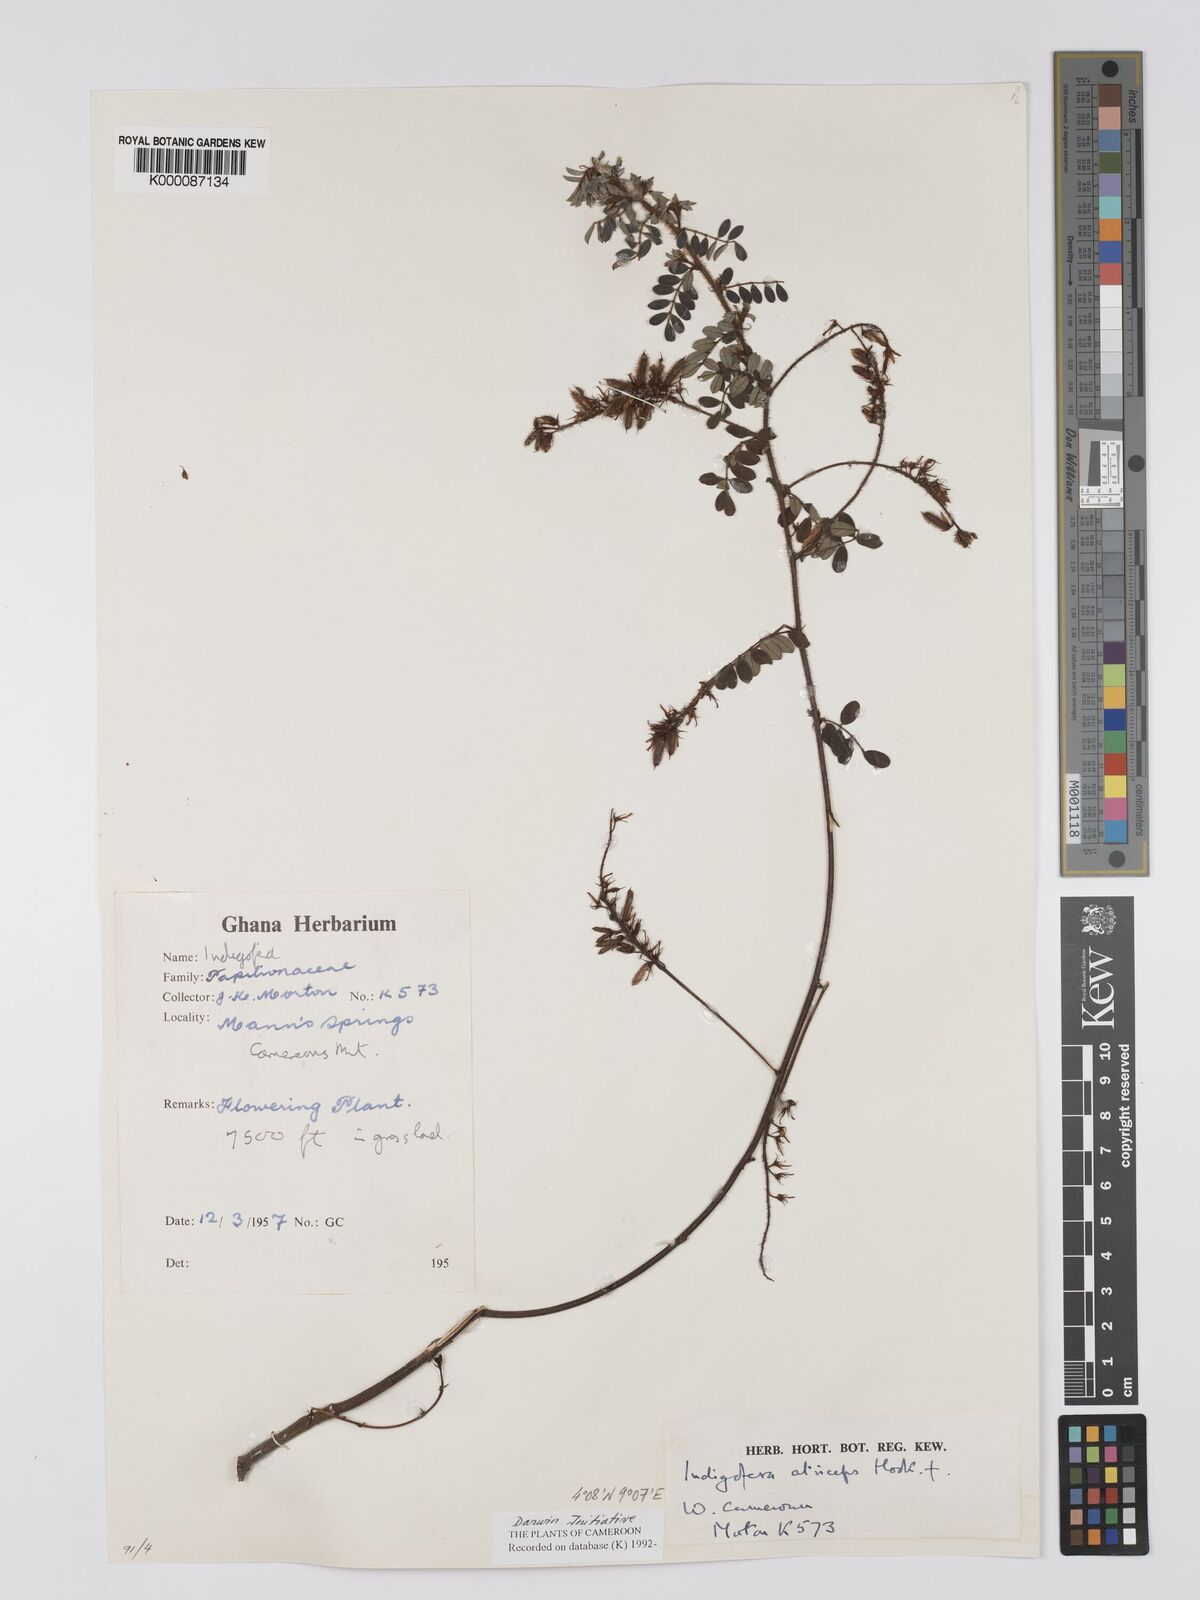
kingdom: Plantae
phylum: Tracheophyta
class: Magnoliopsida
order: Fabales
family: Fabaceae
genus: Indigofera
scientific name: Indigofera atriceps
